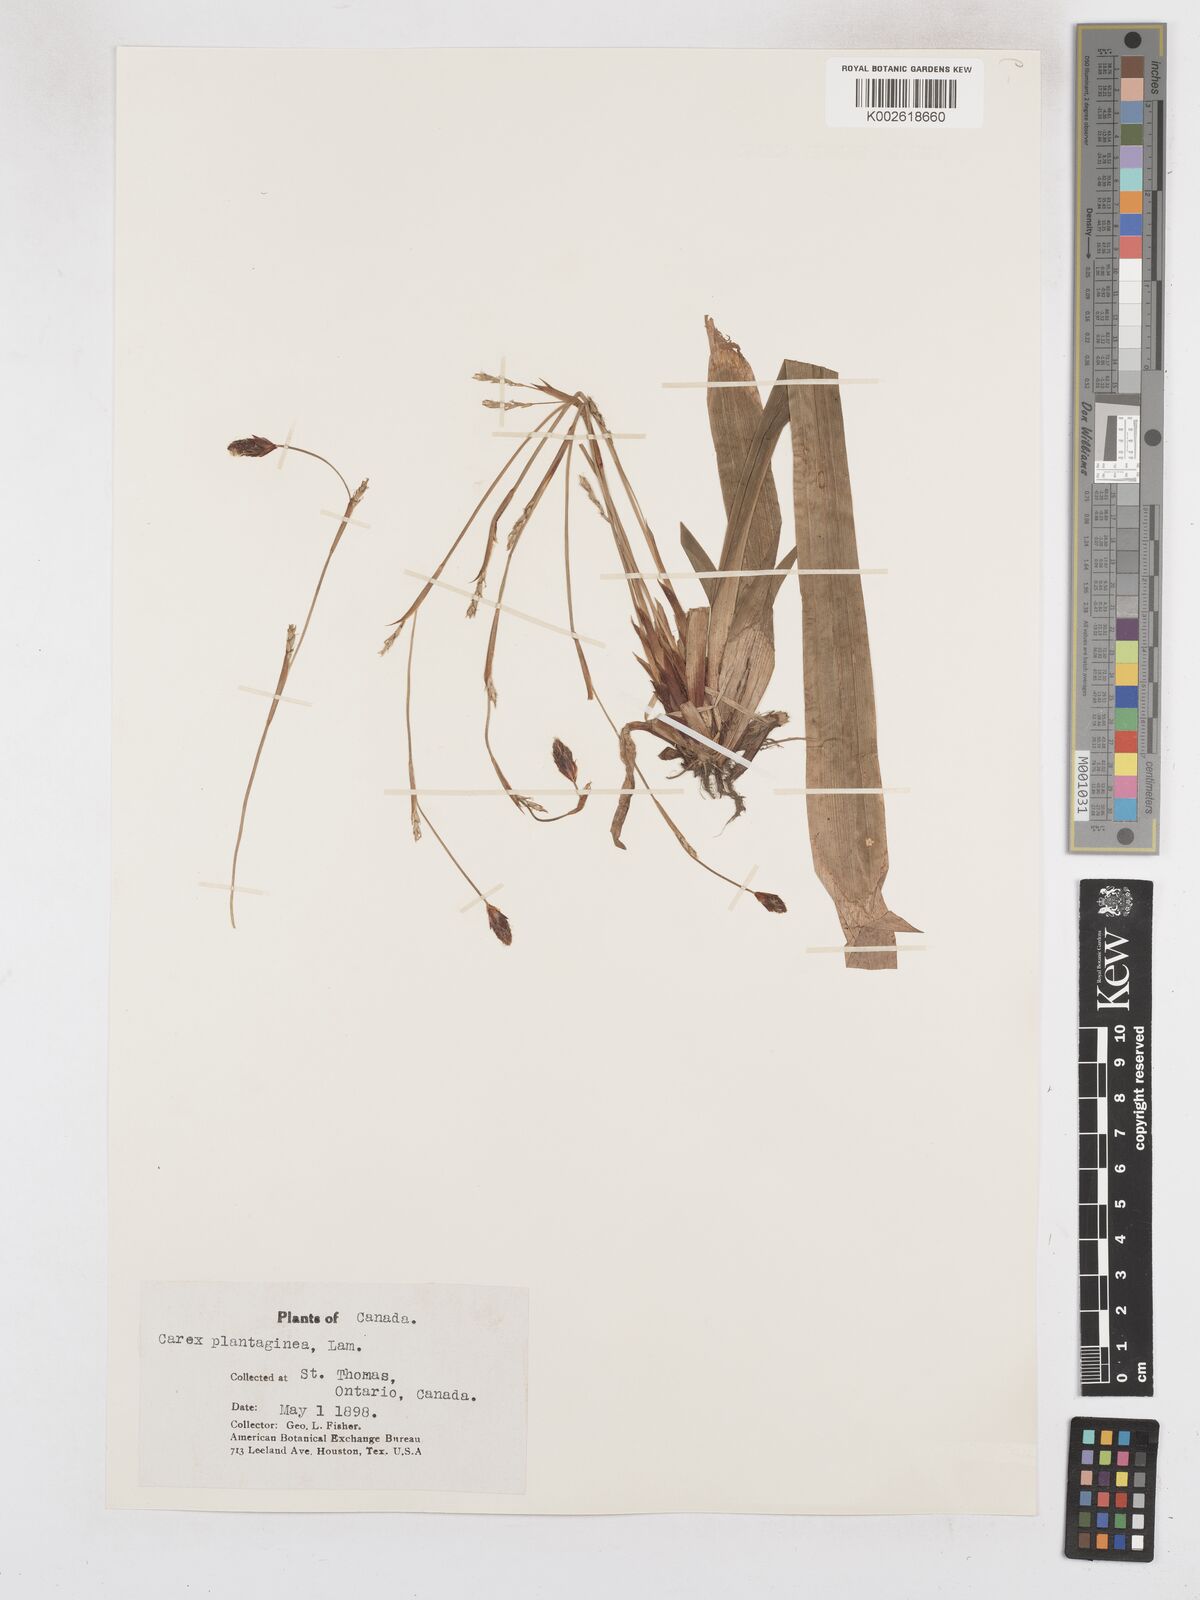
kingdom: Plantae
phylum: Tracheophyta
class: Liliopsida
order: Poales
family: Cyperaceae
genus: Carex
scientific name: Carex plantaginea
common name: Plantain-leaved sedge
